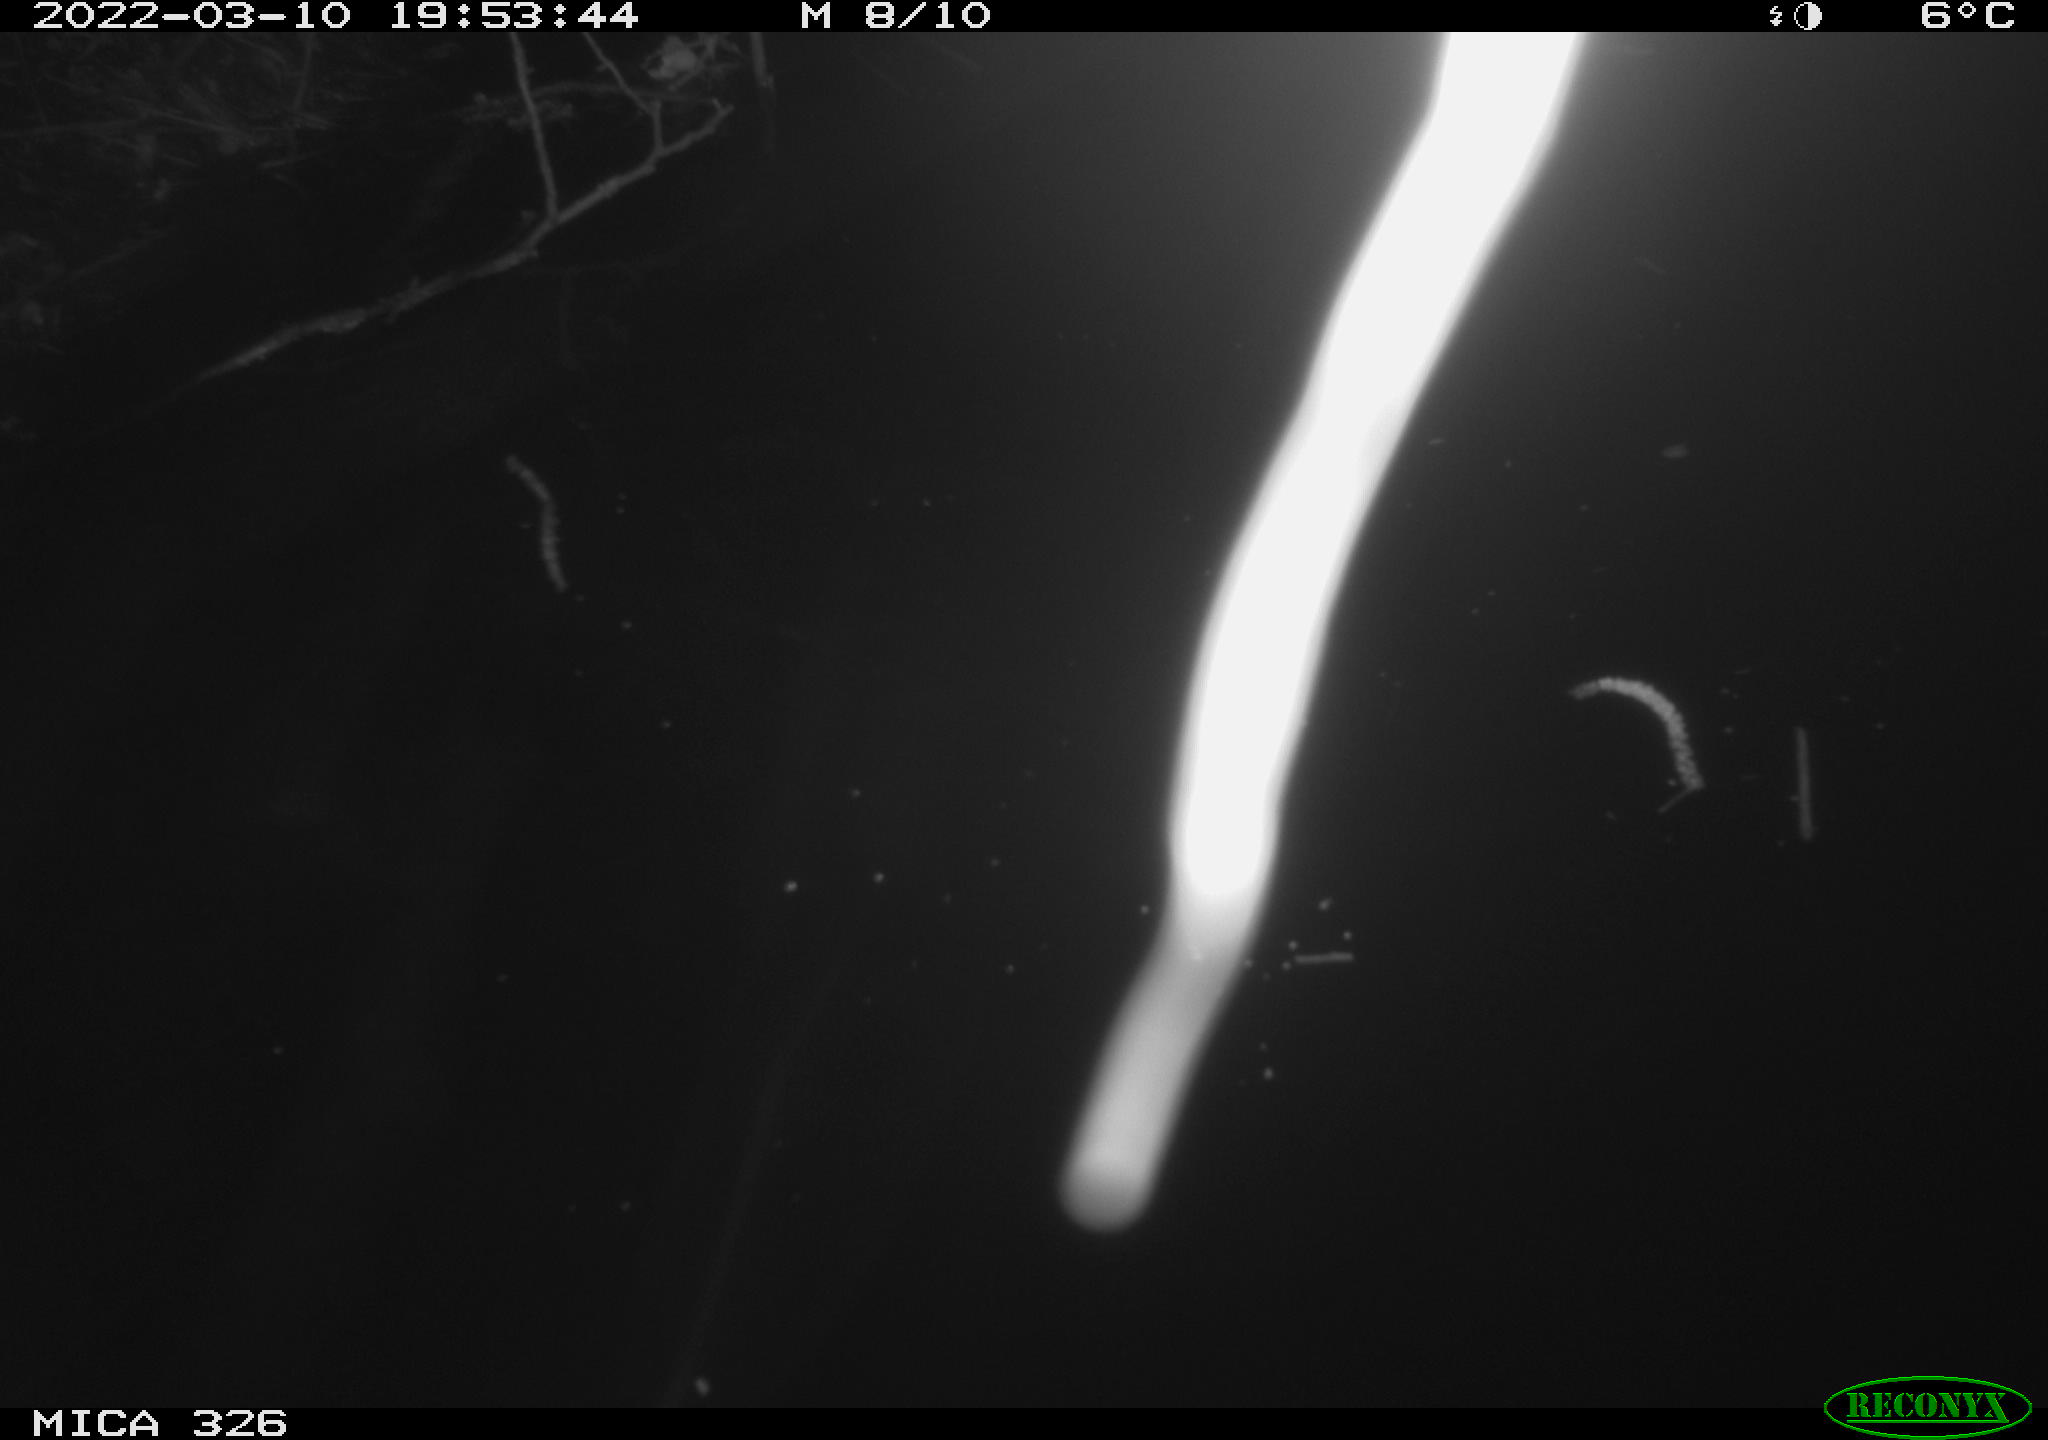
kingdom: Animalia
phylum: Chordata
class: Mammalia
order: Rodentia
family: Cricetidae
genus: Ondatra
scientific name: Ondatra zibethicus
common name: Muskrat
